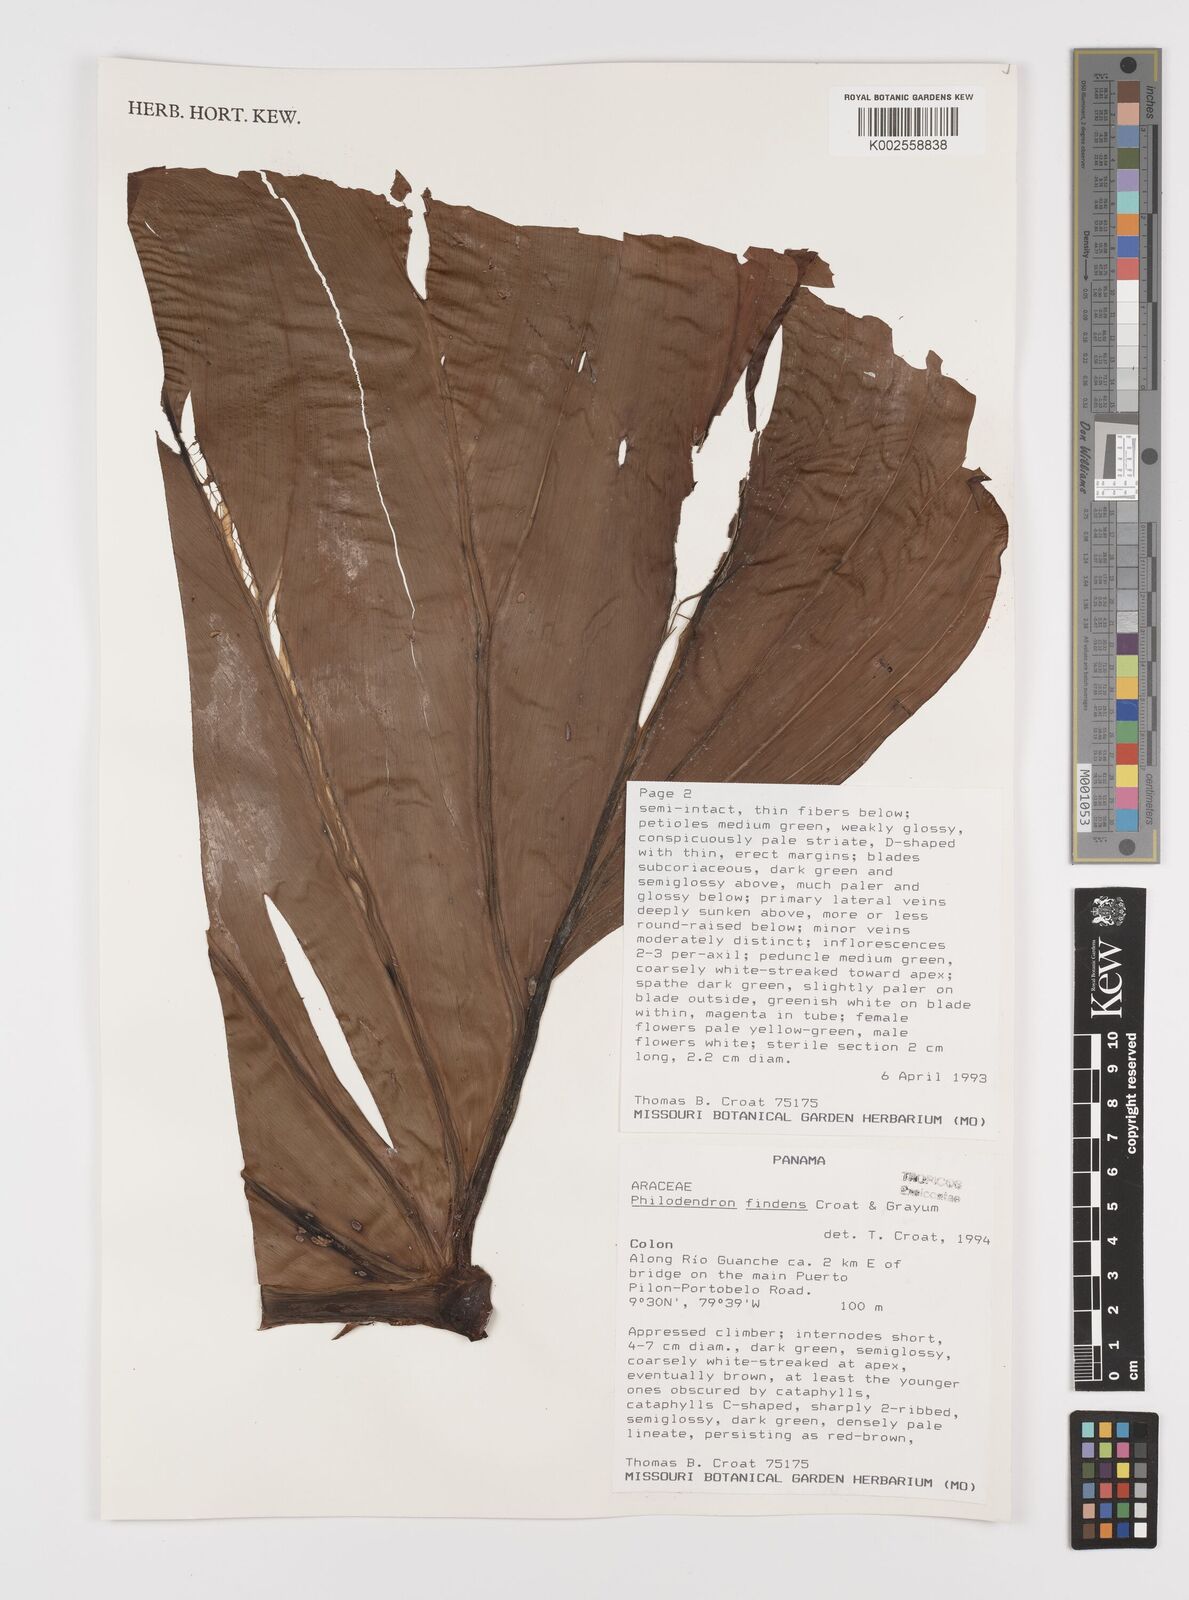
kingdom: Plantae
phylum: Tracheophyta
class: Liliopsida
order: Alismatales
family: Araceae
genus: Philodendron
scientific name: Philodendron findens
